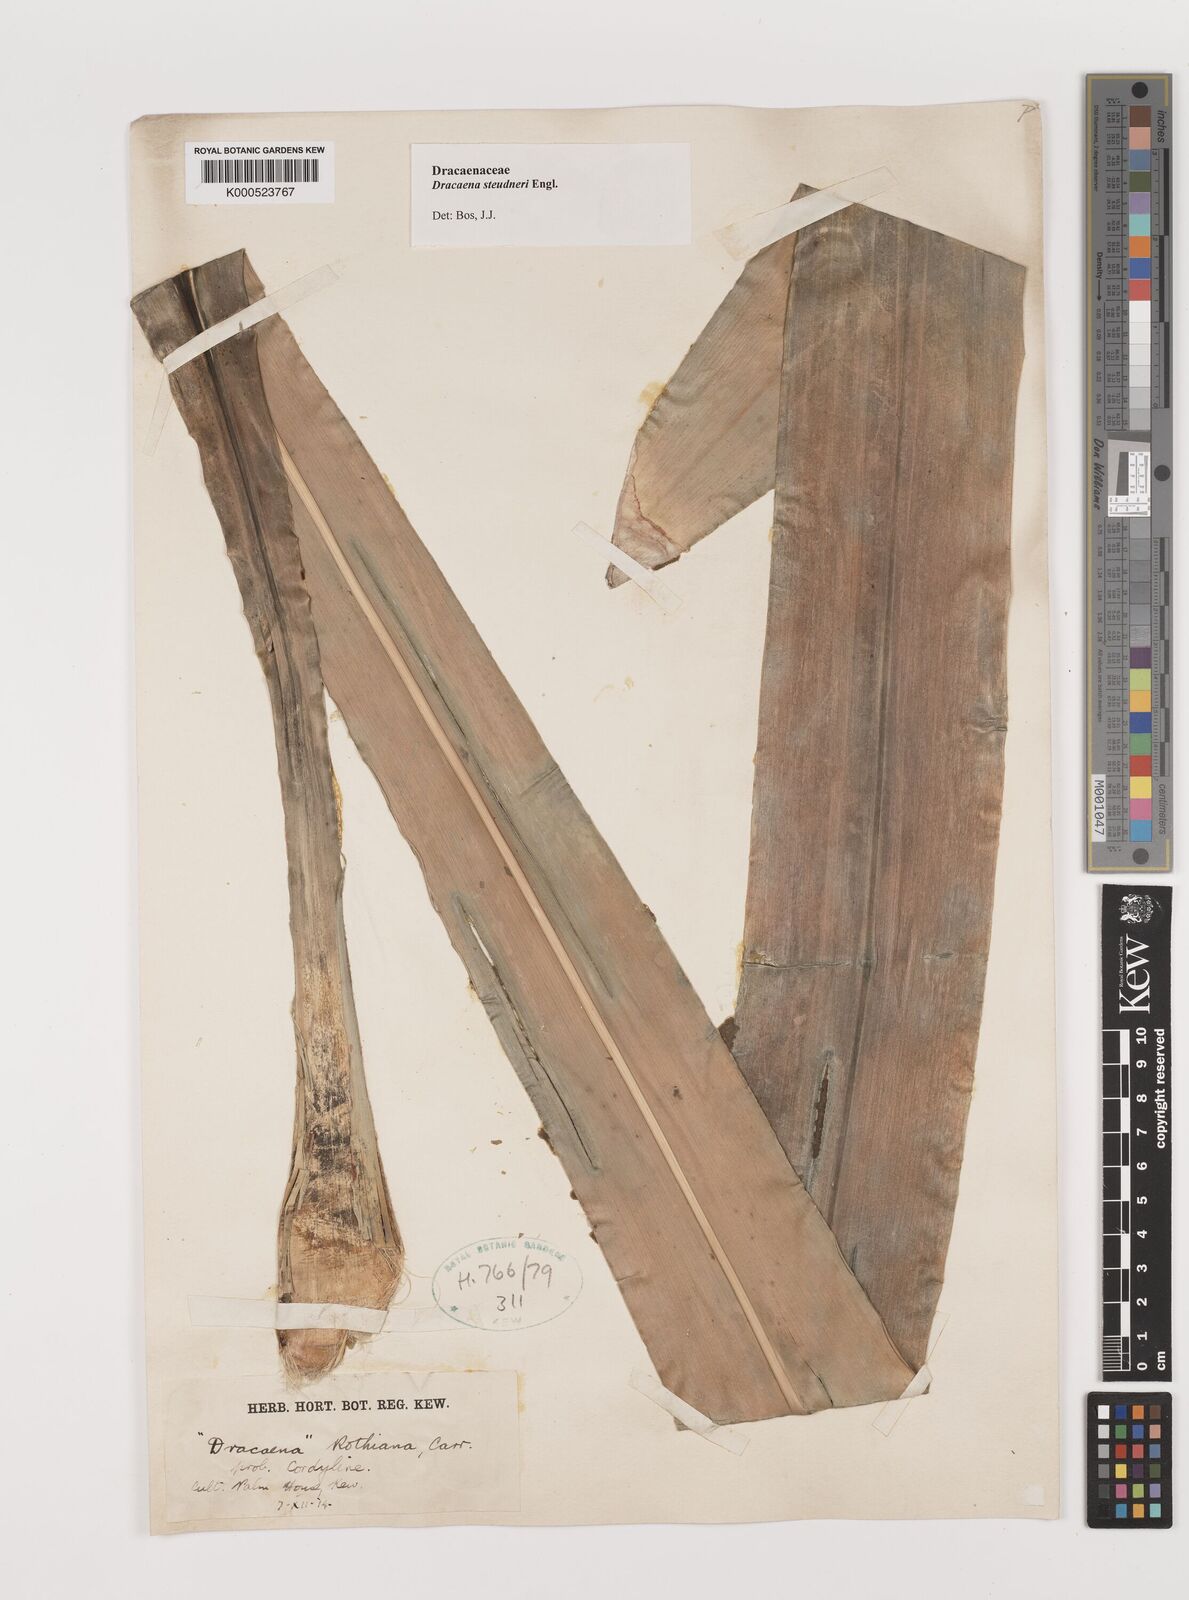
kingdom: Plantae
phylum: Tracheophyta
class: Liliopsida
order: Asparagales
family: Asparagaceae
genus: Dracaena
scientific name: Dracaena steudneri
